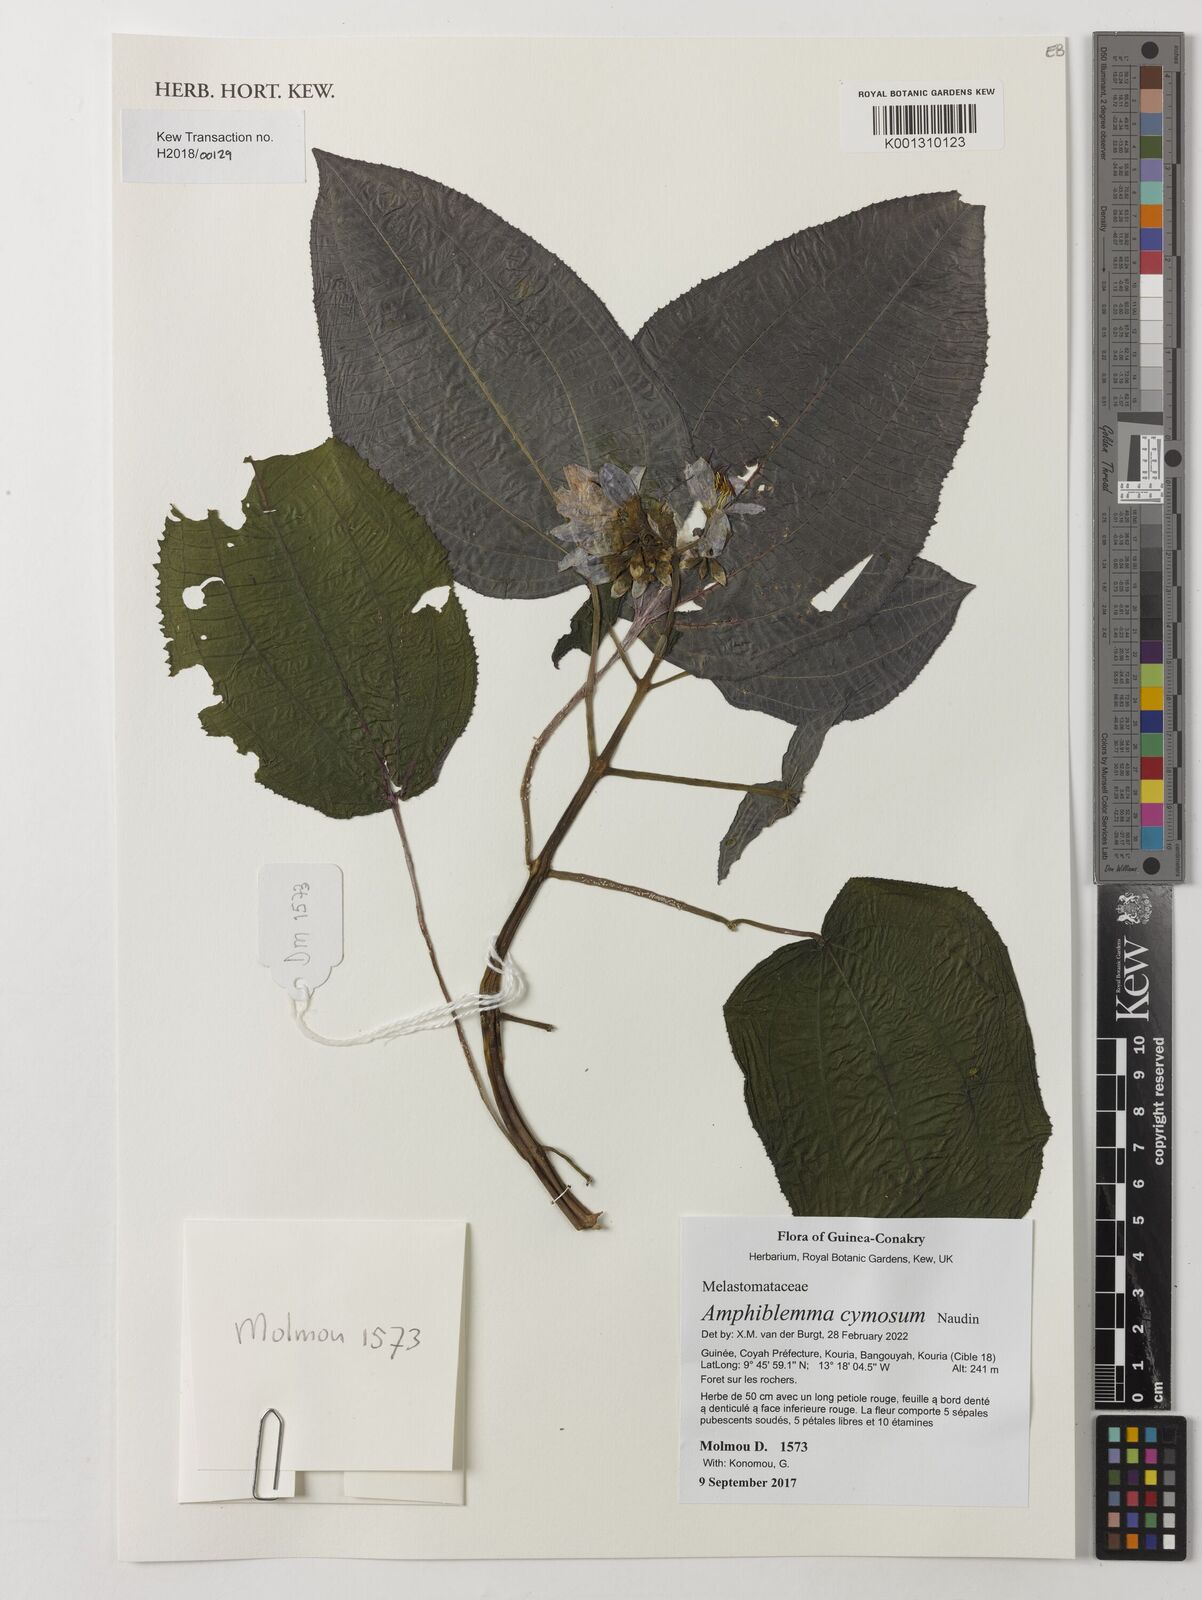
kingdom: Plantae
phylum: Tracheophyta
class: Magnoliopsida
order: Myrtales
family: Melastomataceae
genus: Amphiblemma
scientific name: Amphiblemma cymosum
